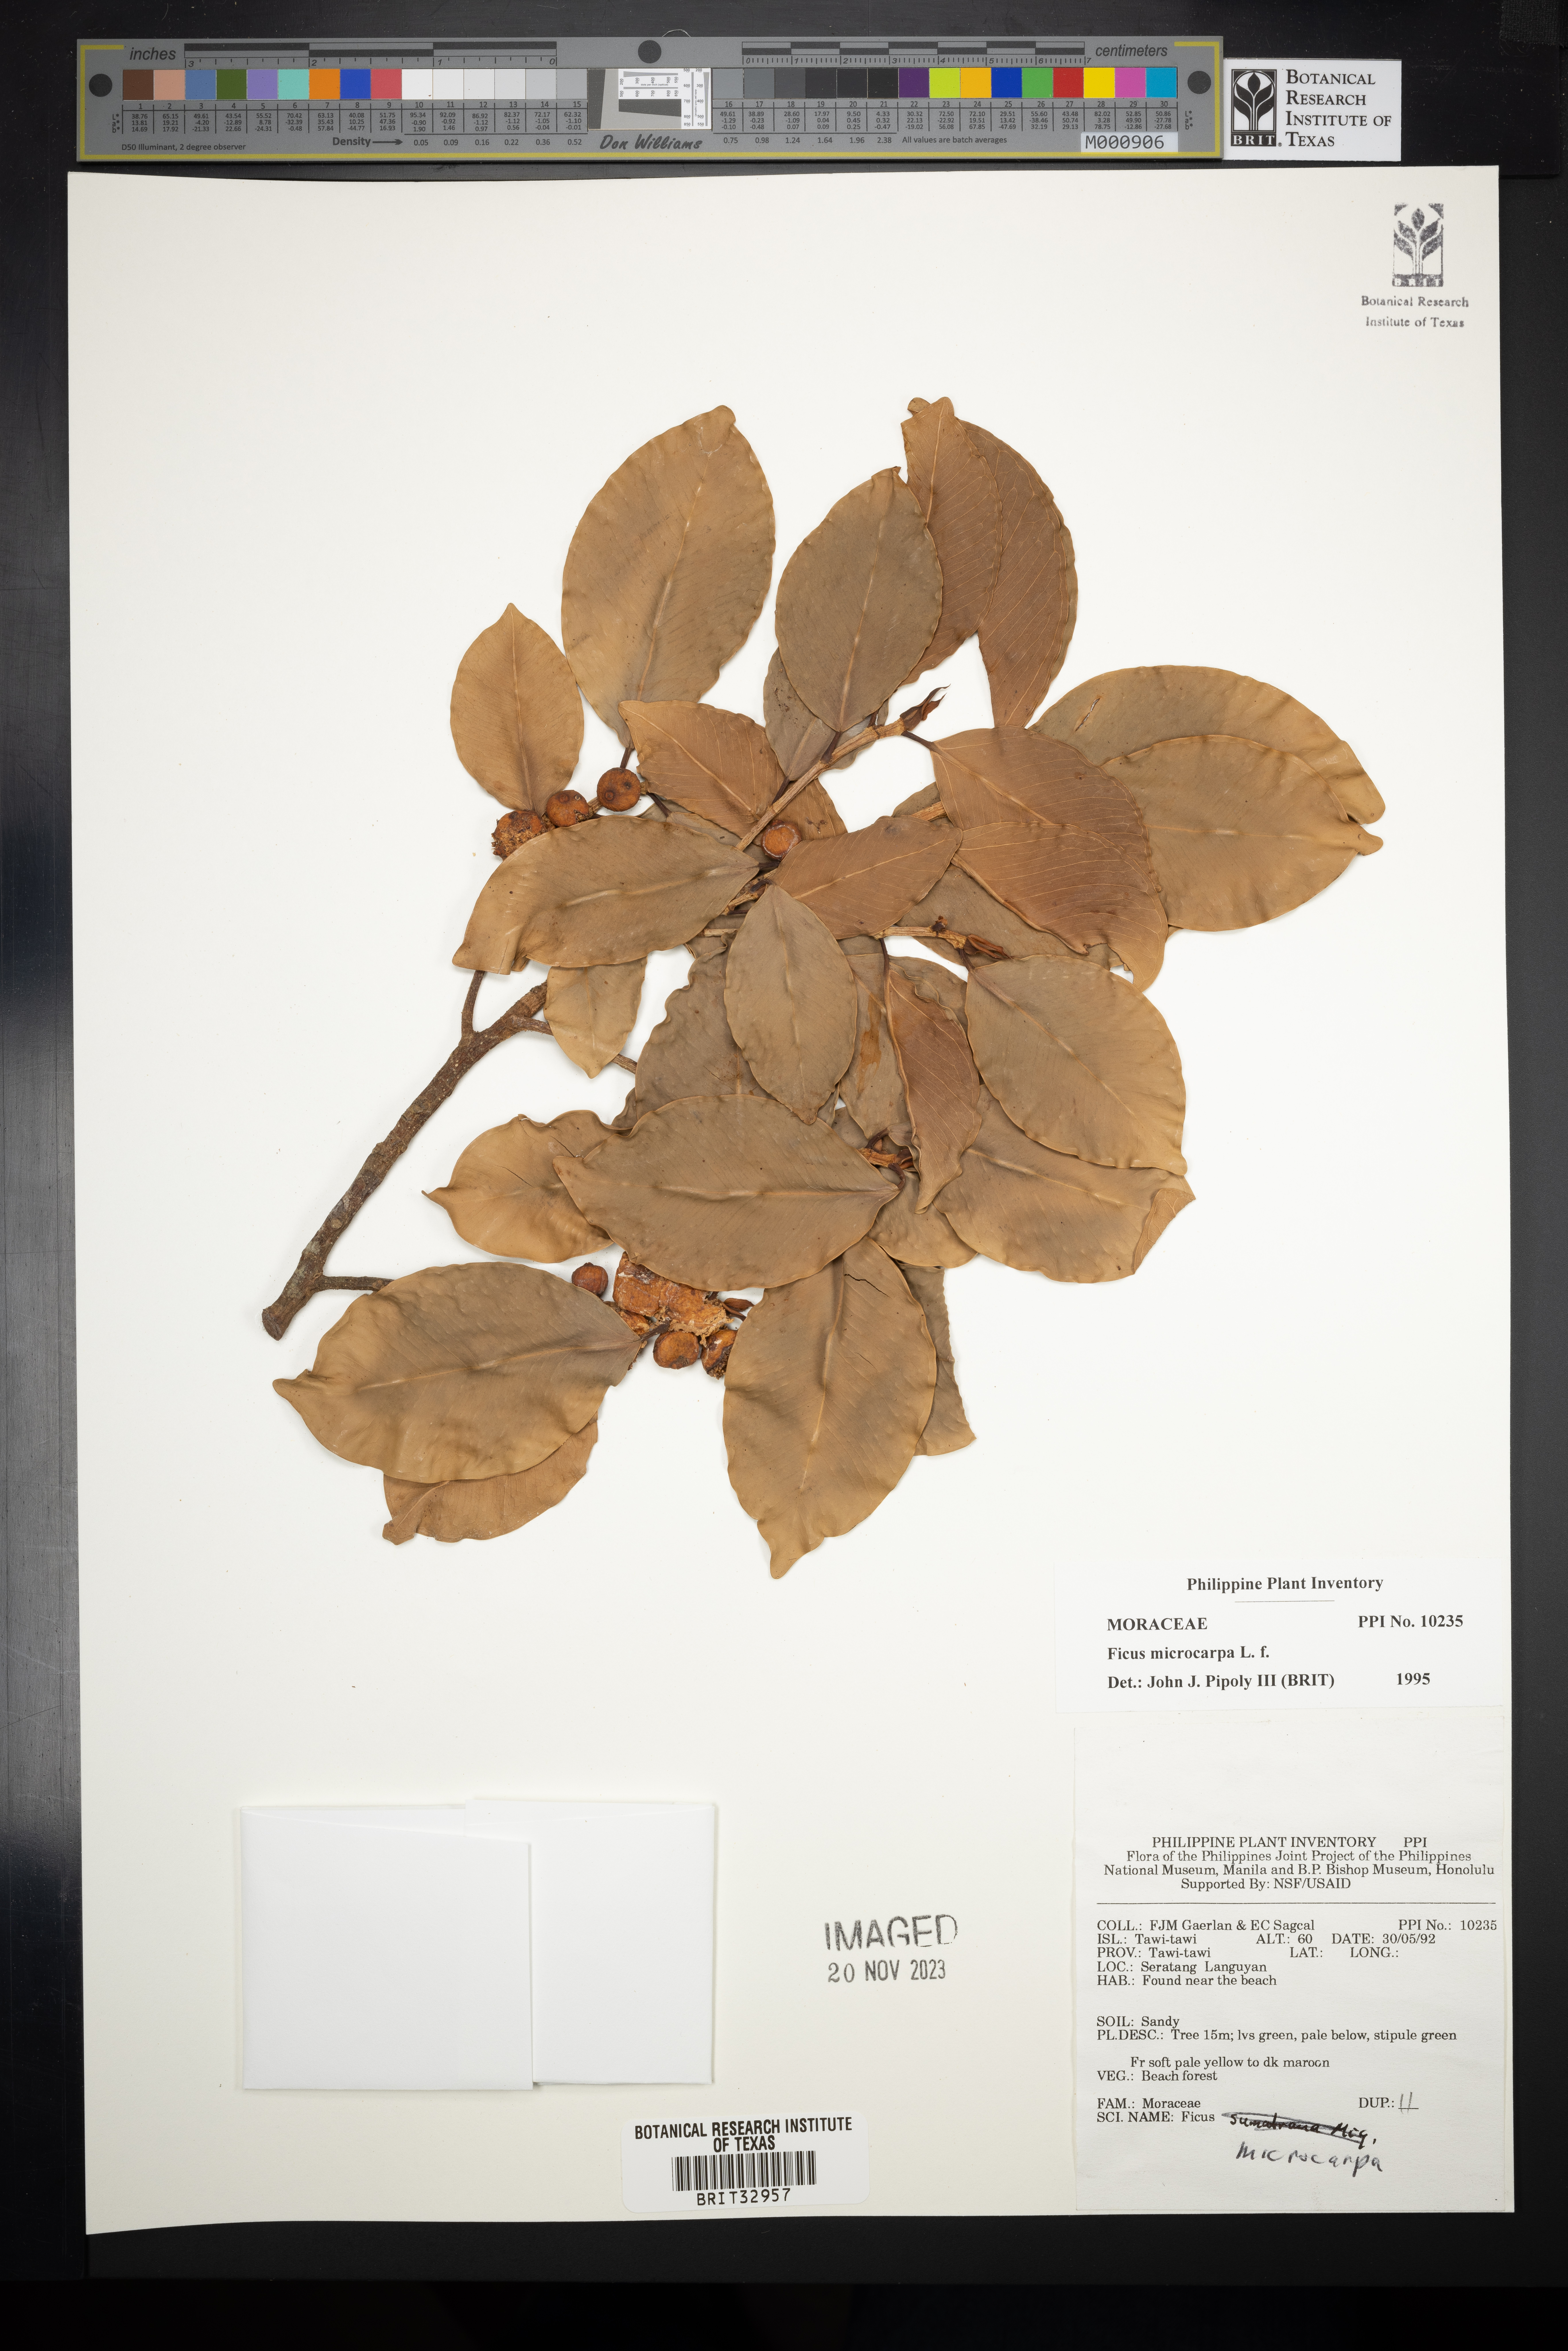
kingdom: Plantae
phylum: Tracheophyta
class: Magnoliopsida
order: Rosales
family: Moraceae
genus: Ficus
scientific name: Ficus microcarpa
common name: Chinese banyan
